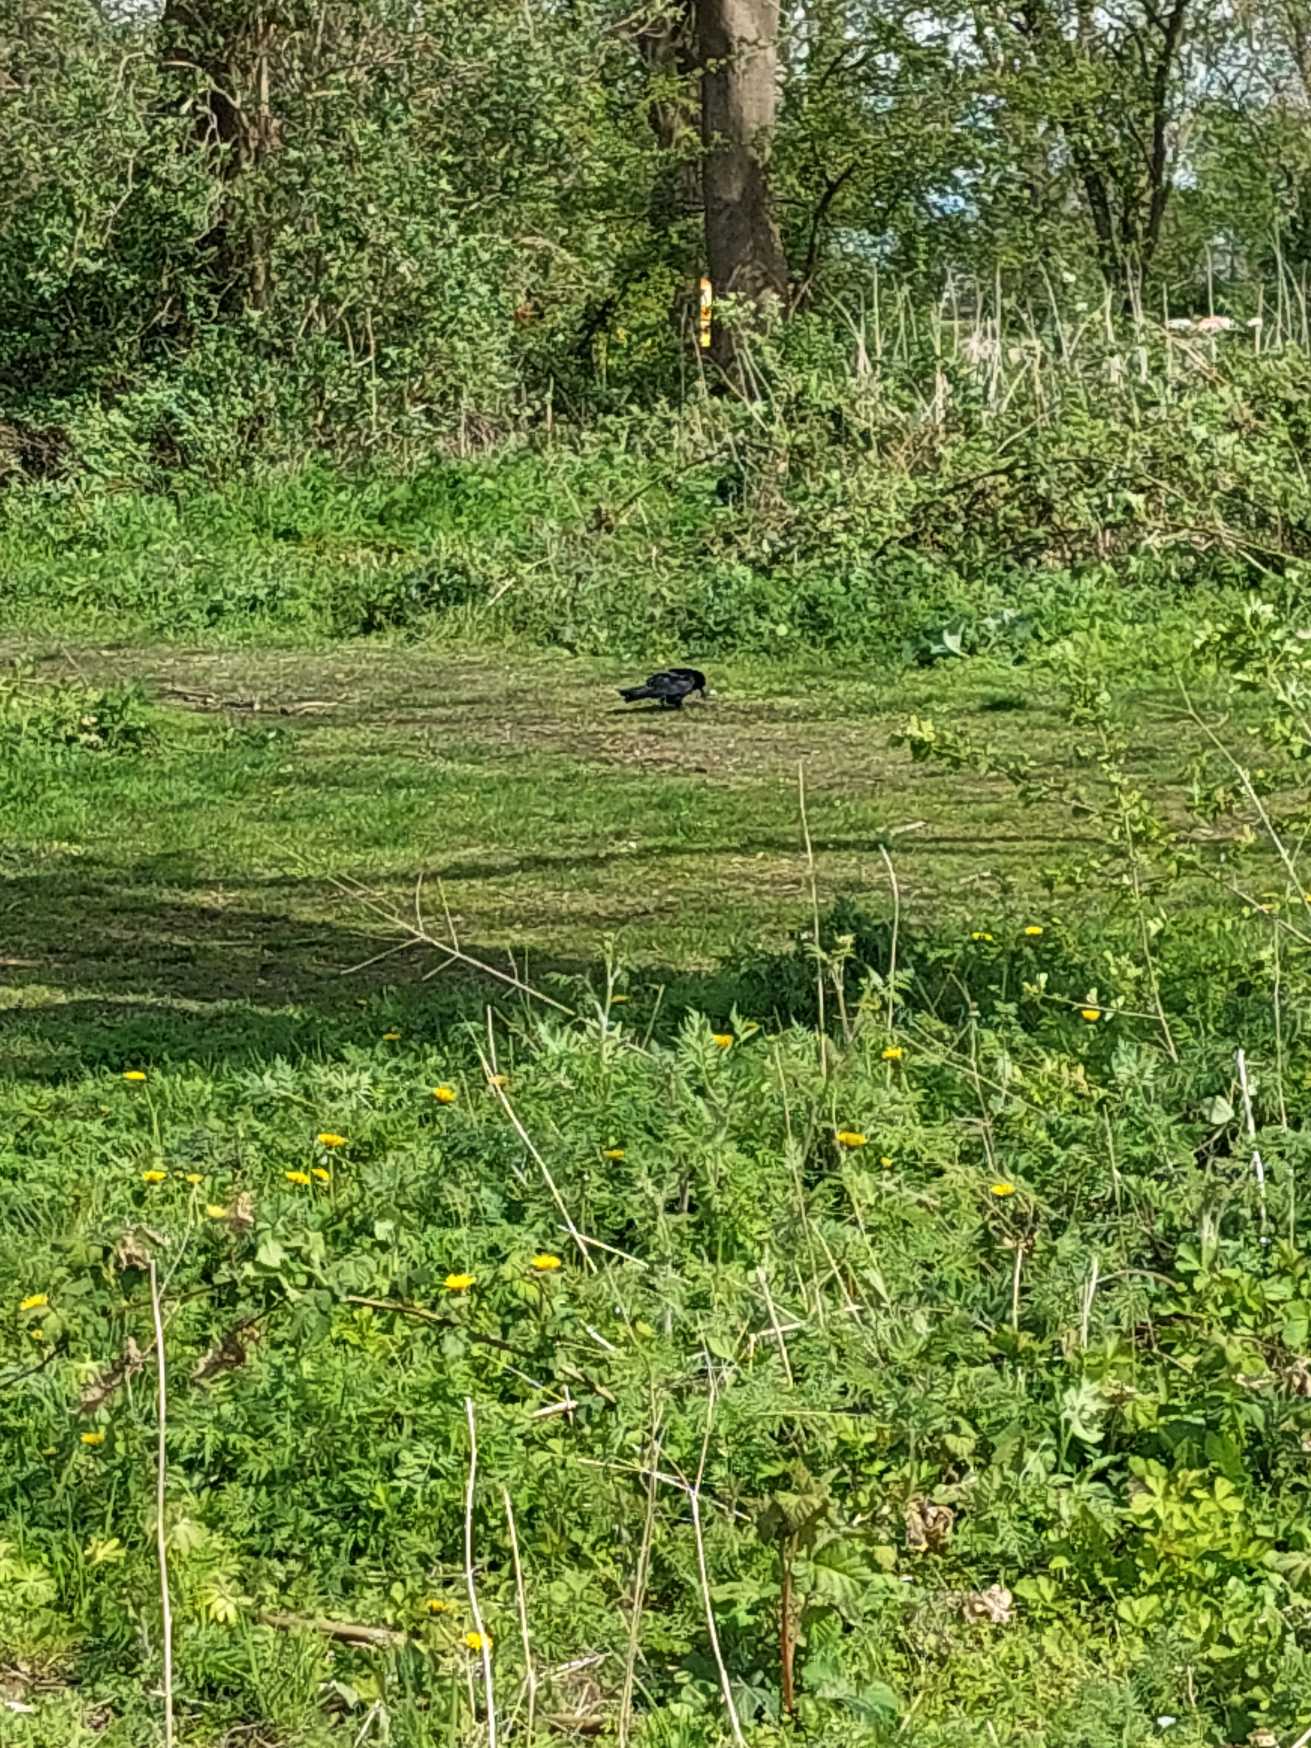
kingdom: Animalia
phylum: Chordata
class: Aves
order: Passeriformes
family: Corvidae
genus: Corvus
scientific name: Corvus frugilegus
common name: Råge
